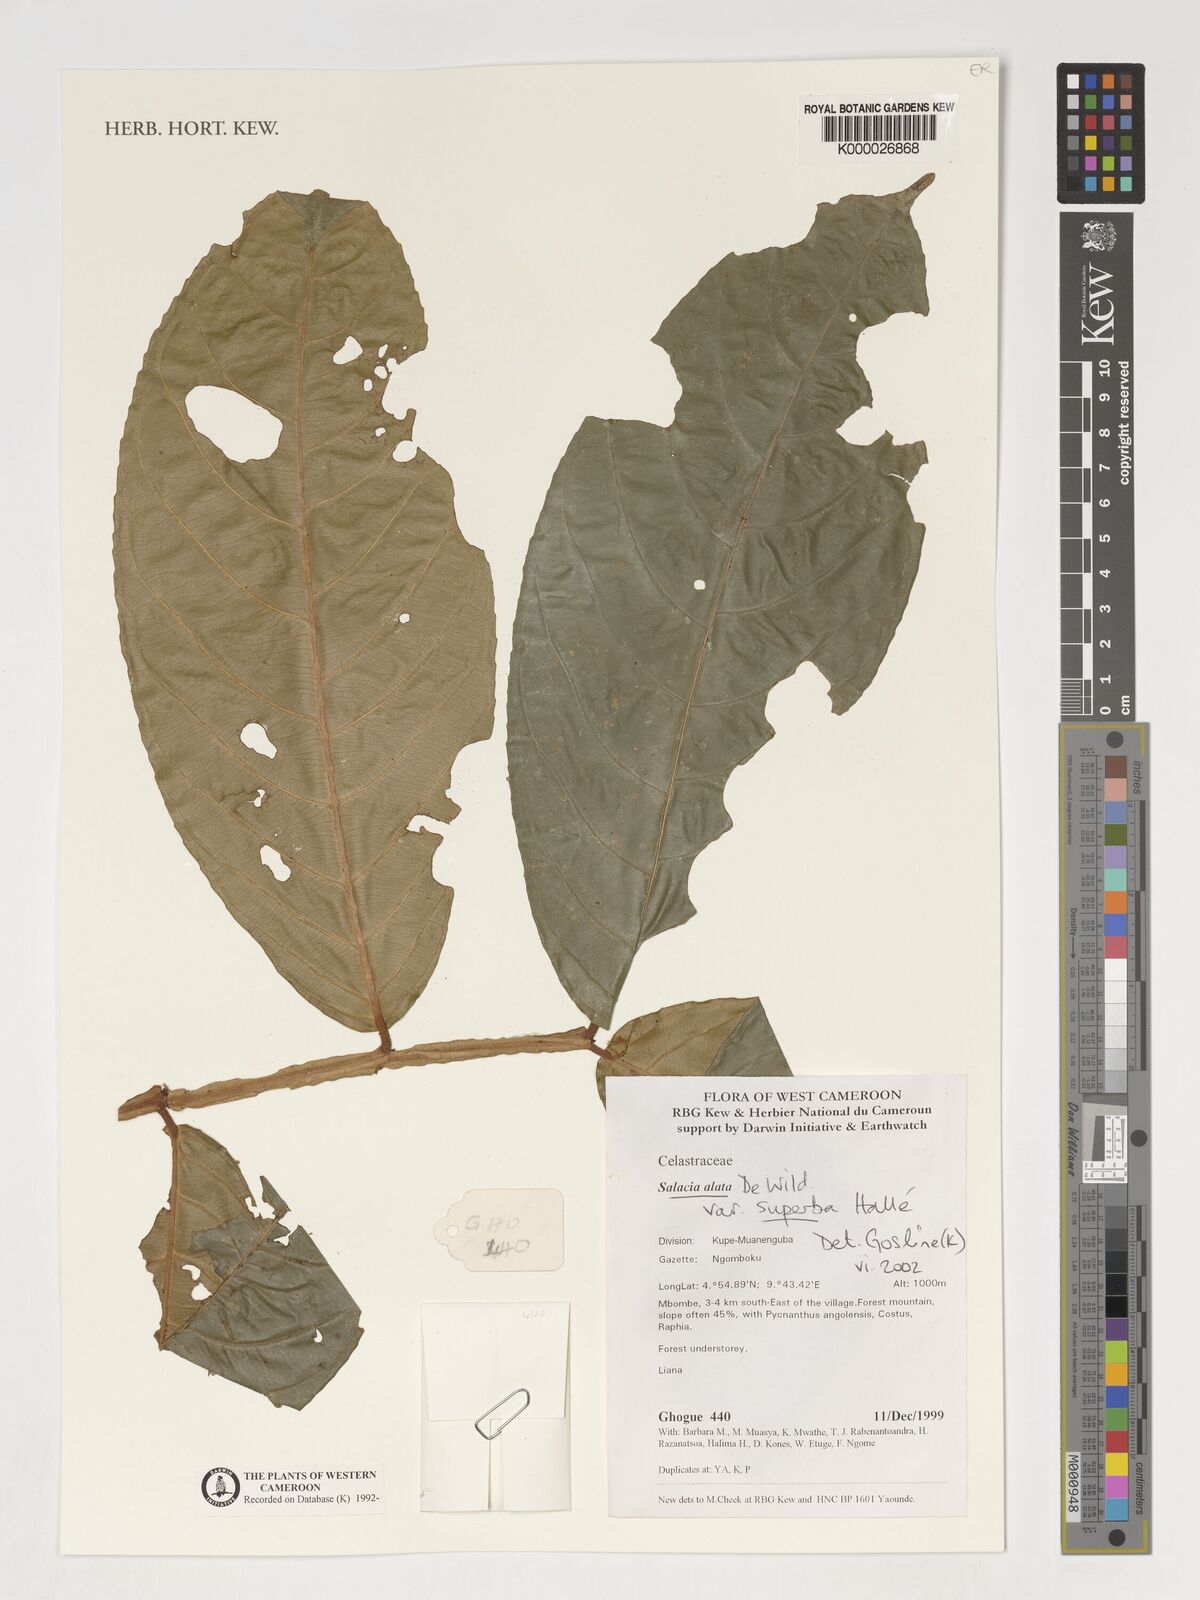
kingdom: Plantae
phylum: Tracheophyta
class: Magnoliopsida
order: Celastrales
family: Celastraceae
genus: Salacia
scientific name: Salacia alata
